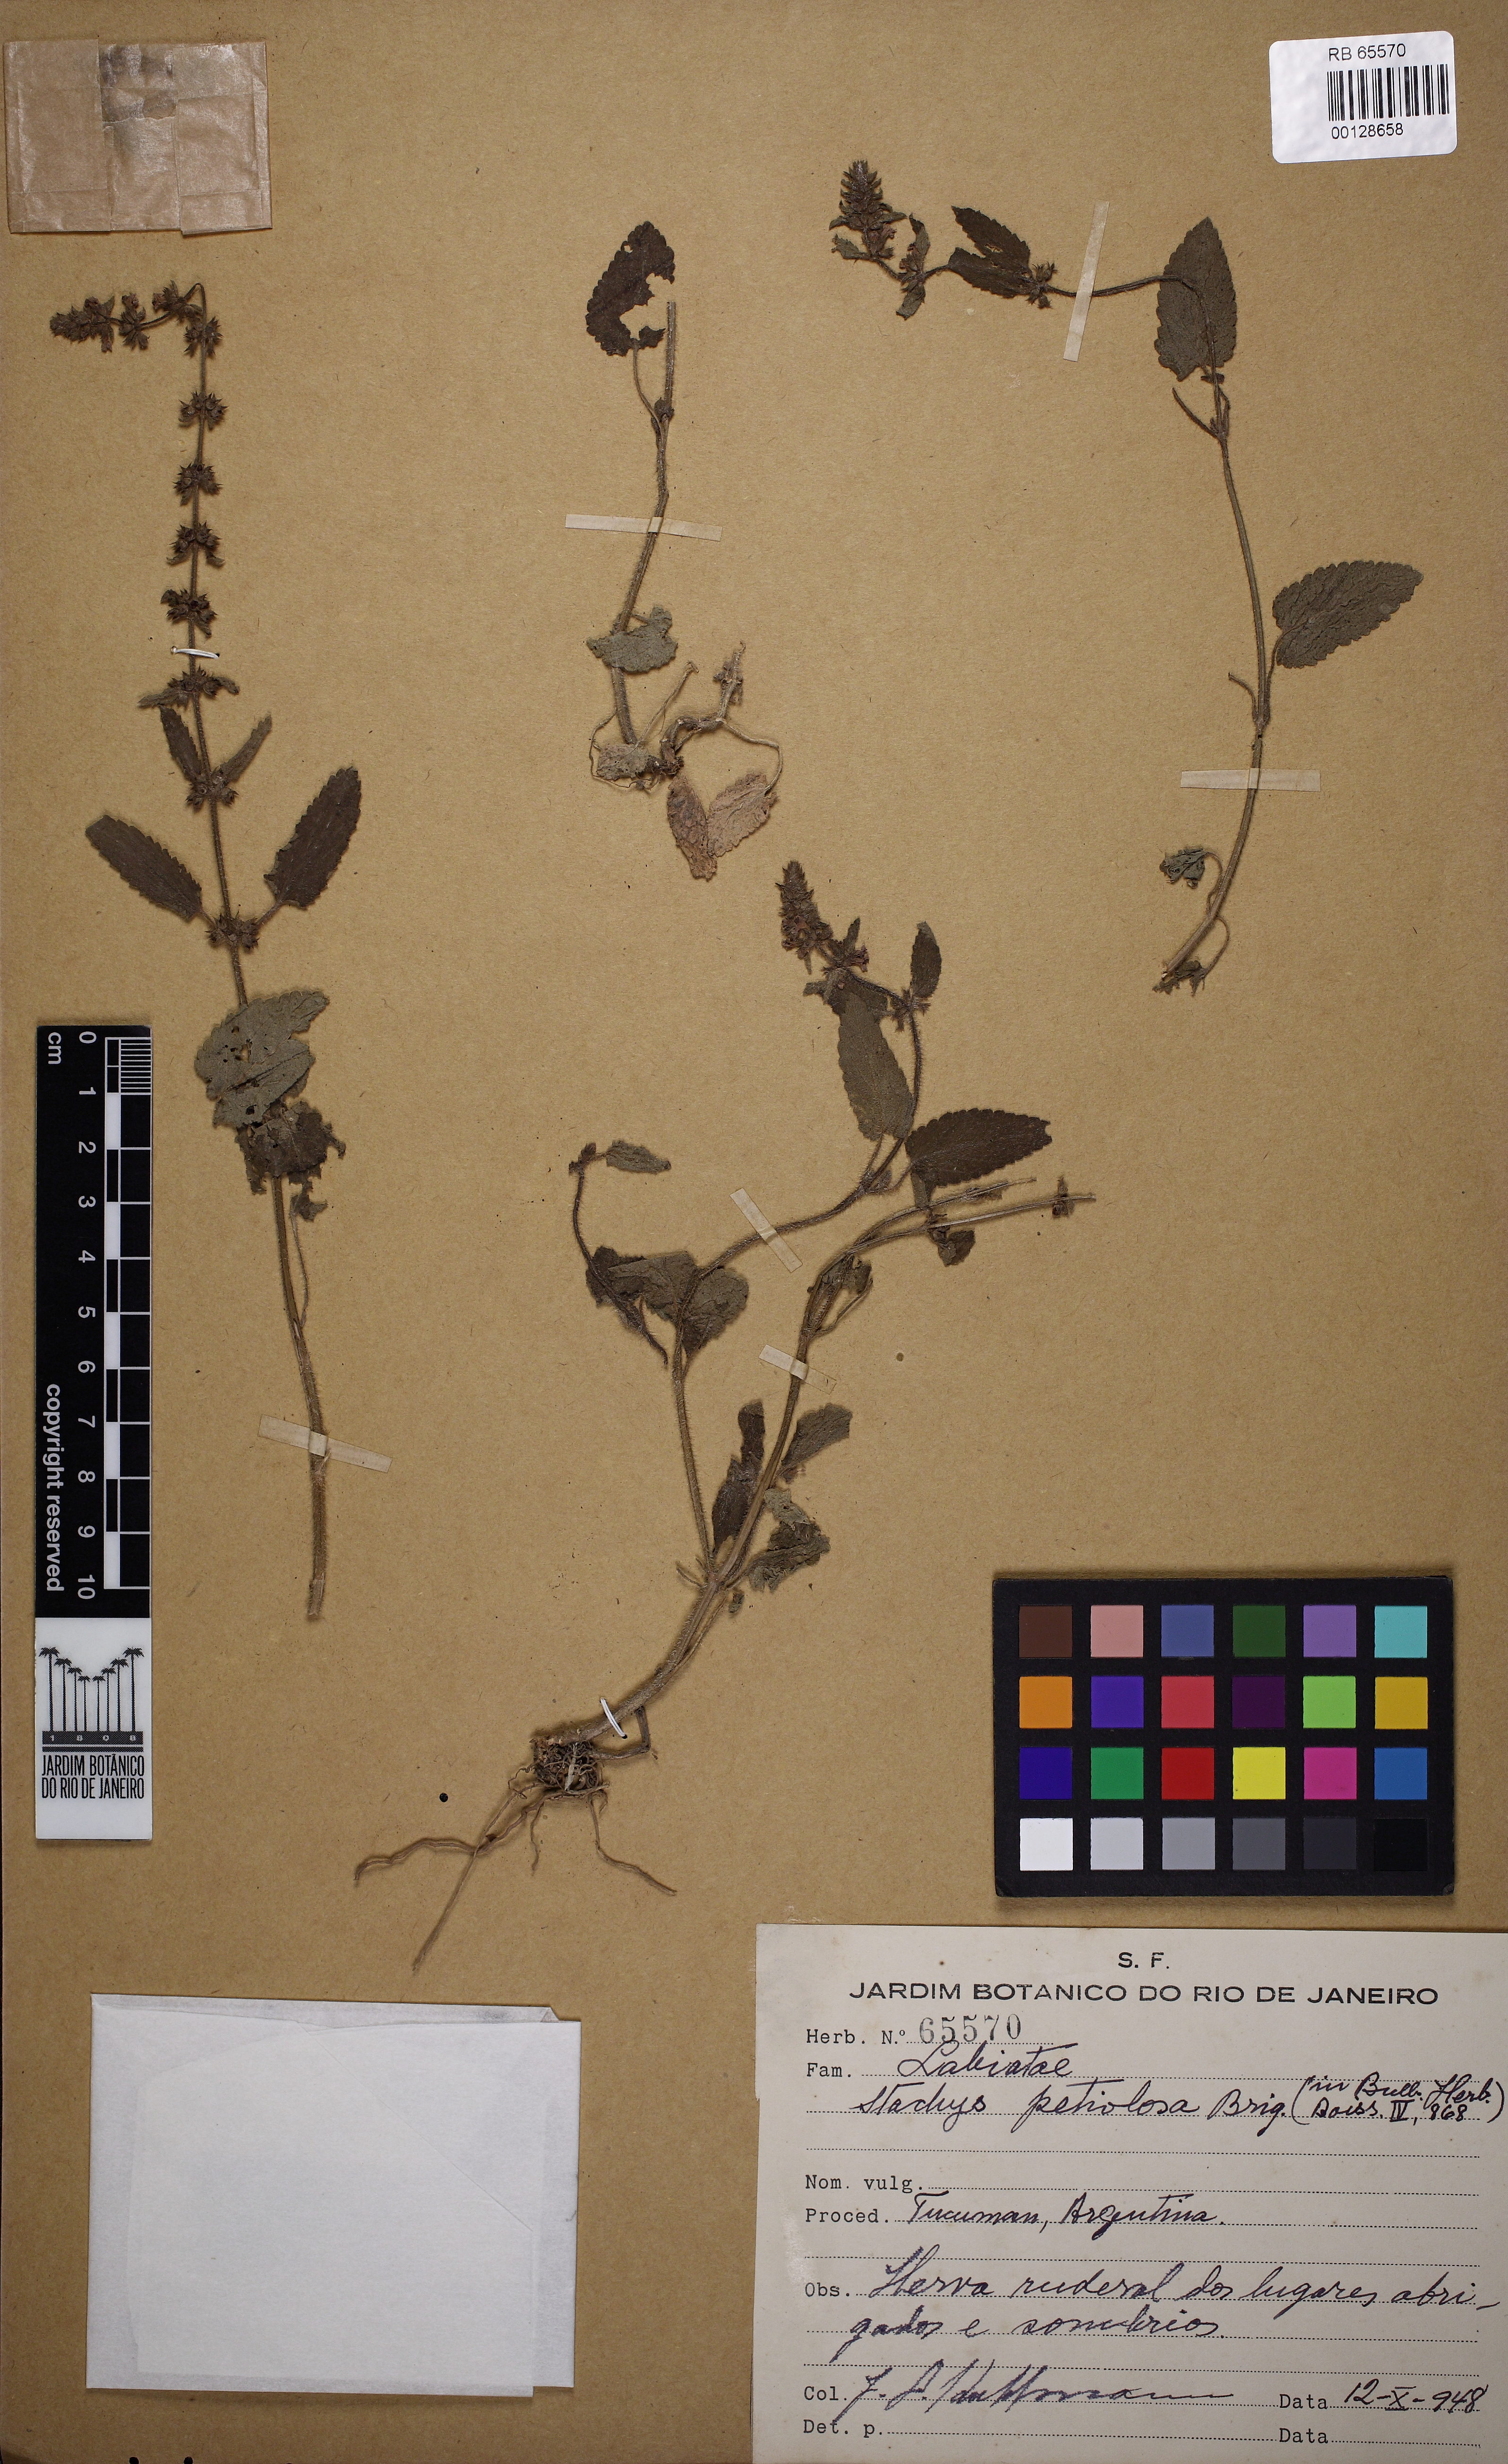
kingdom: Plantae
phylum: Tracheophyta
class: Magnoliopsida
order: Lamiales
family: Lamiaceae
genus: Stachys
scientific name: Stachys gilliesii
